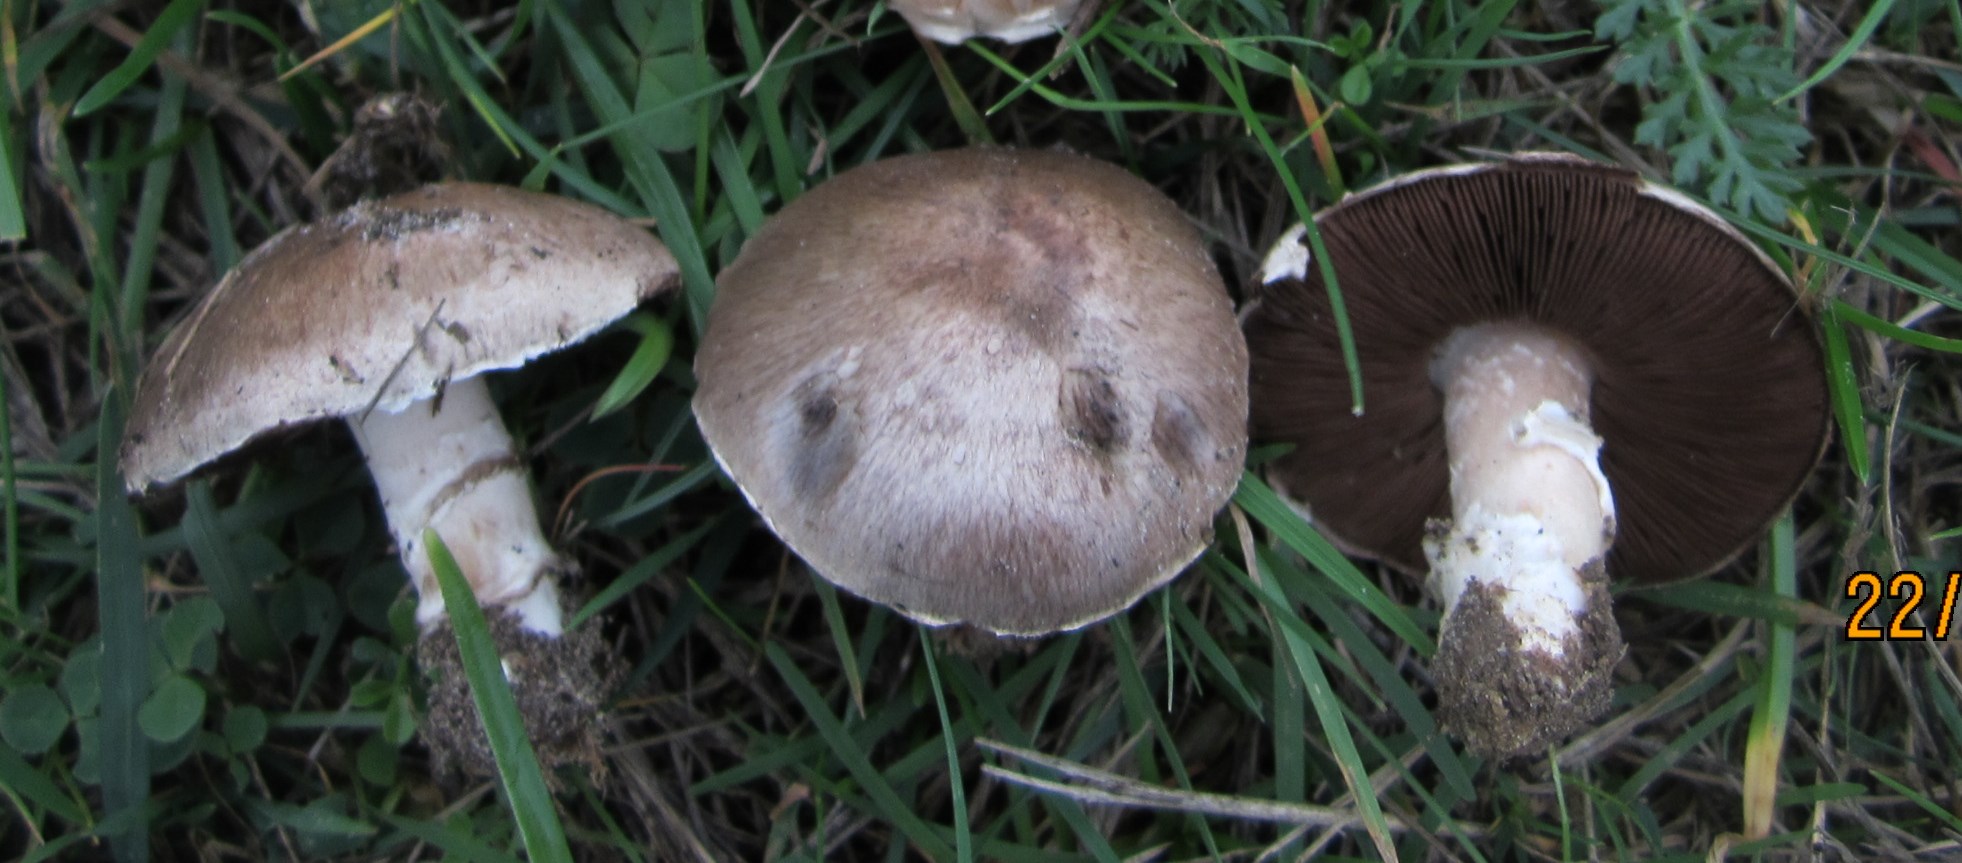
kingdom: Fungi
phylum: Basidiomycota
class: Agaricomycetes
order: Agaricales
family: Agaricaceae
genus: Agaricus
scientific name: Agaricus cupreobrunneus
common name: kobberbrun champignon
